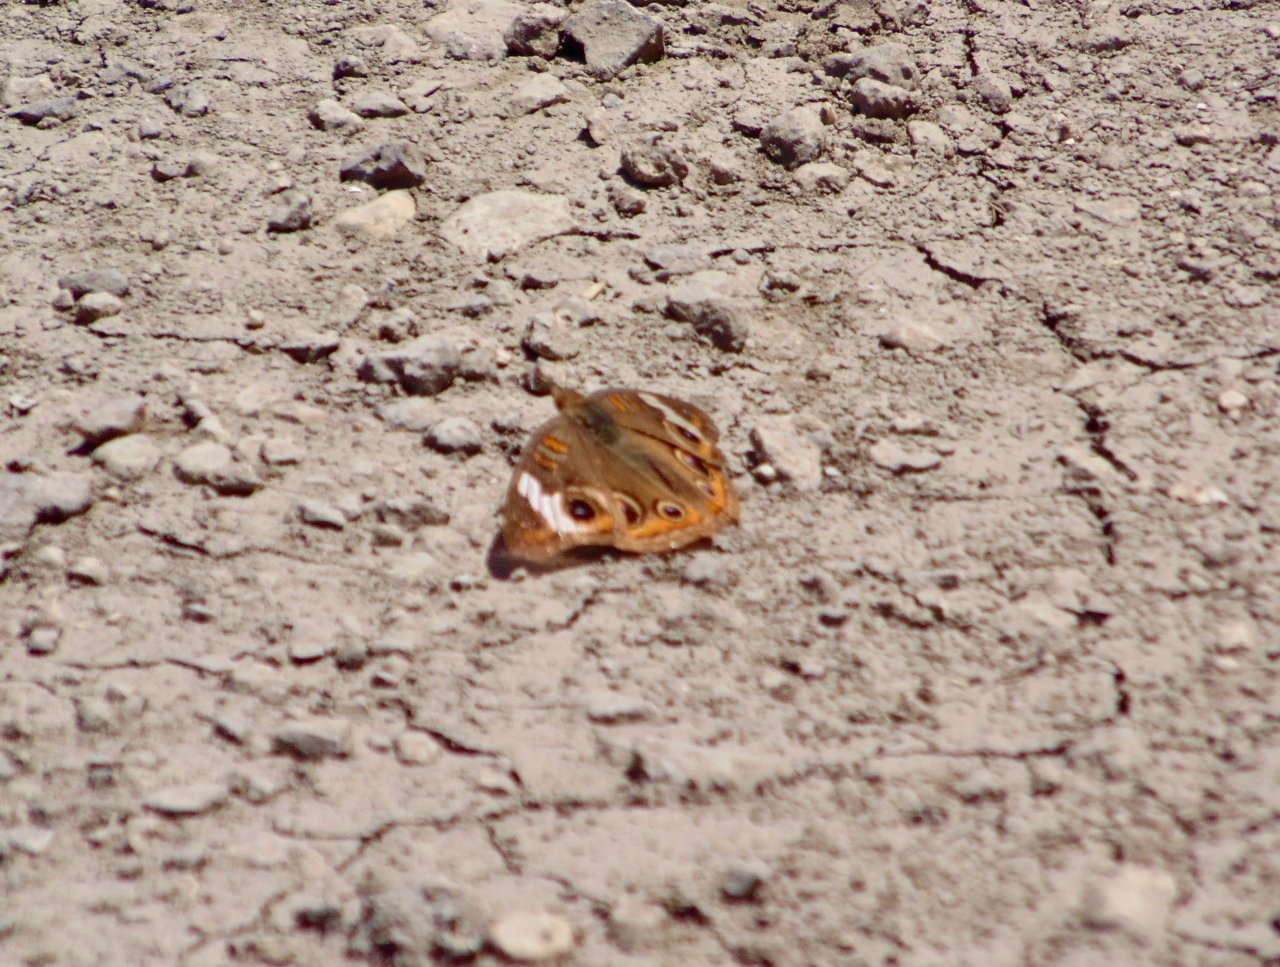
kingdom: Animalia
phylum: Arthropoda
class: Insecta
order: Lepidoptera
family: Nymphalidae
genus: Junonia
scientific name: Junonia coenia
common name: Common Buckeye
